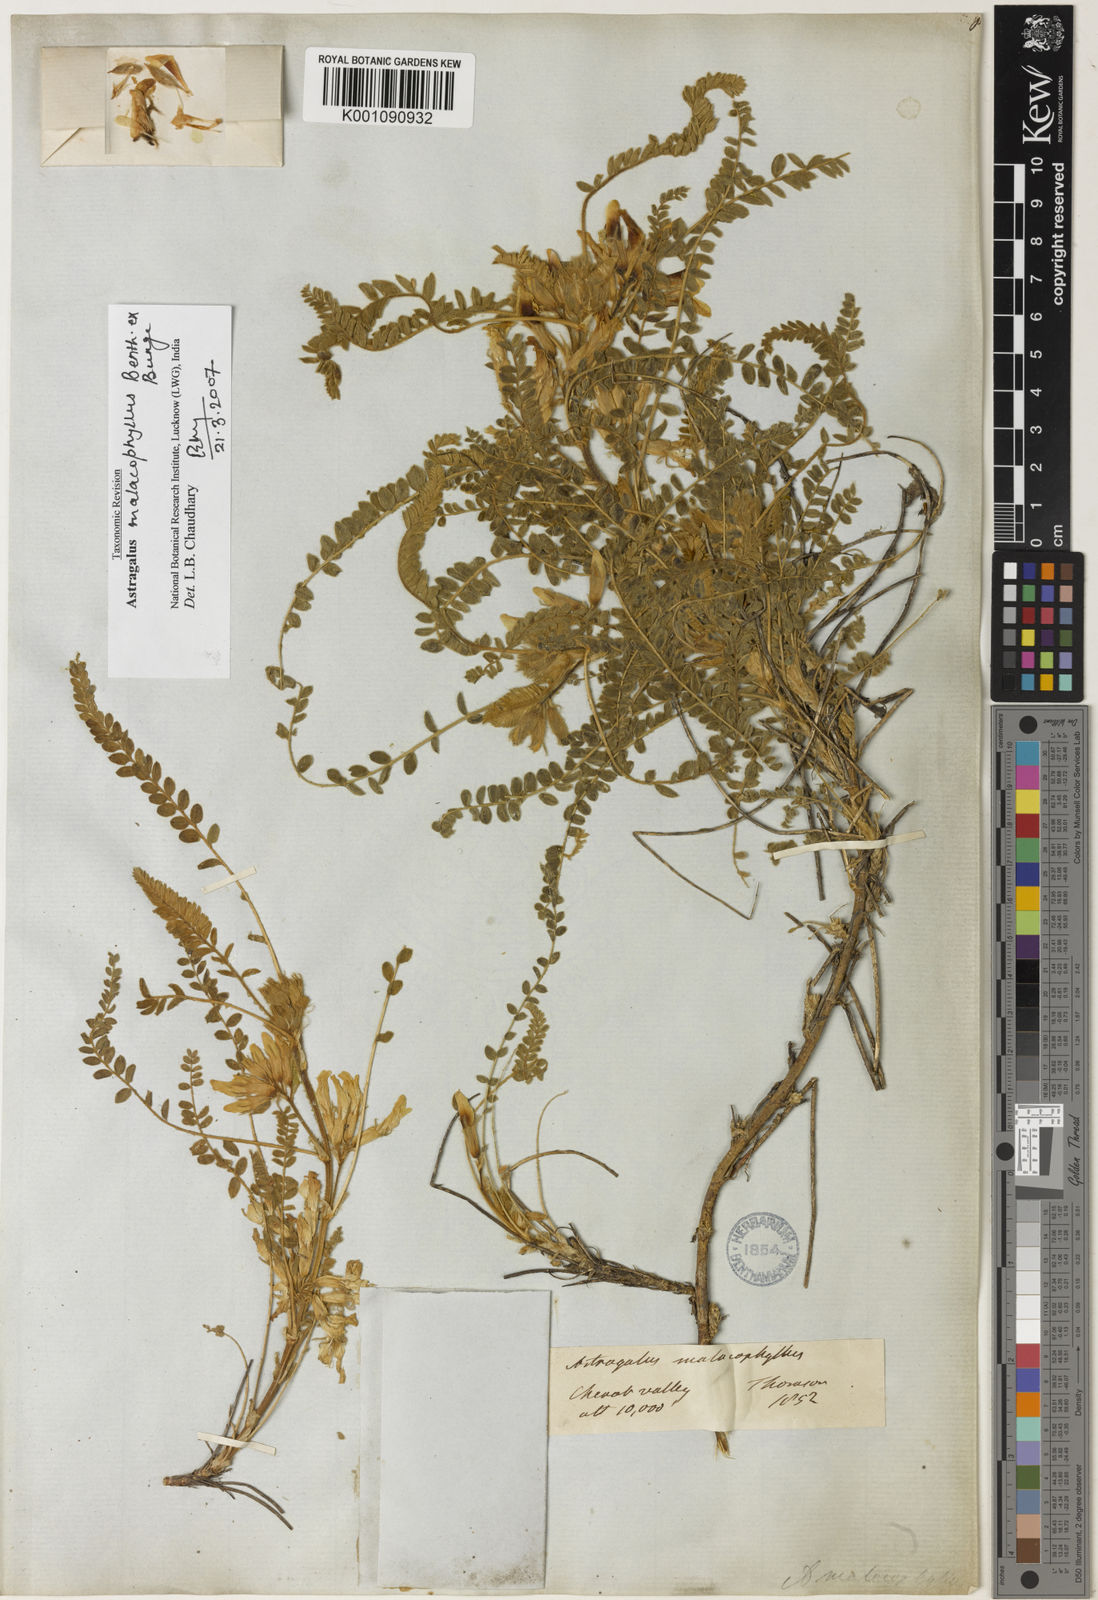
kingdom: Plantae
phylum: Tracheophyta
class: Magnoliopsida
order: Fabales
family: Fabaceae
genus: Astragalus
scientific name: Astragalus rhizanthus
